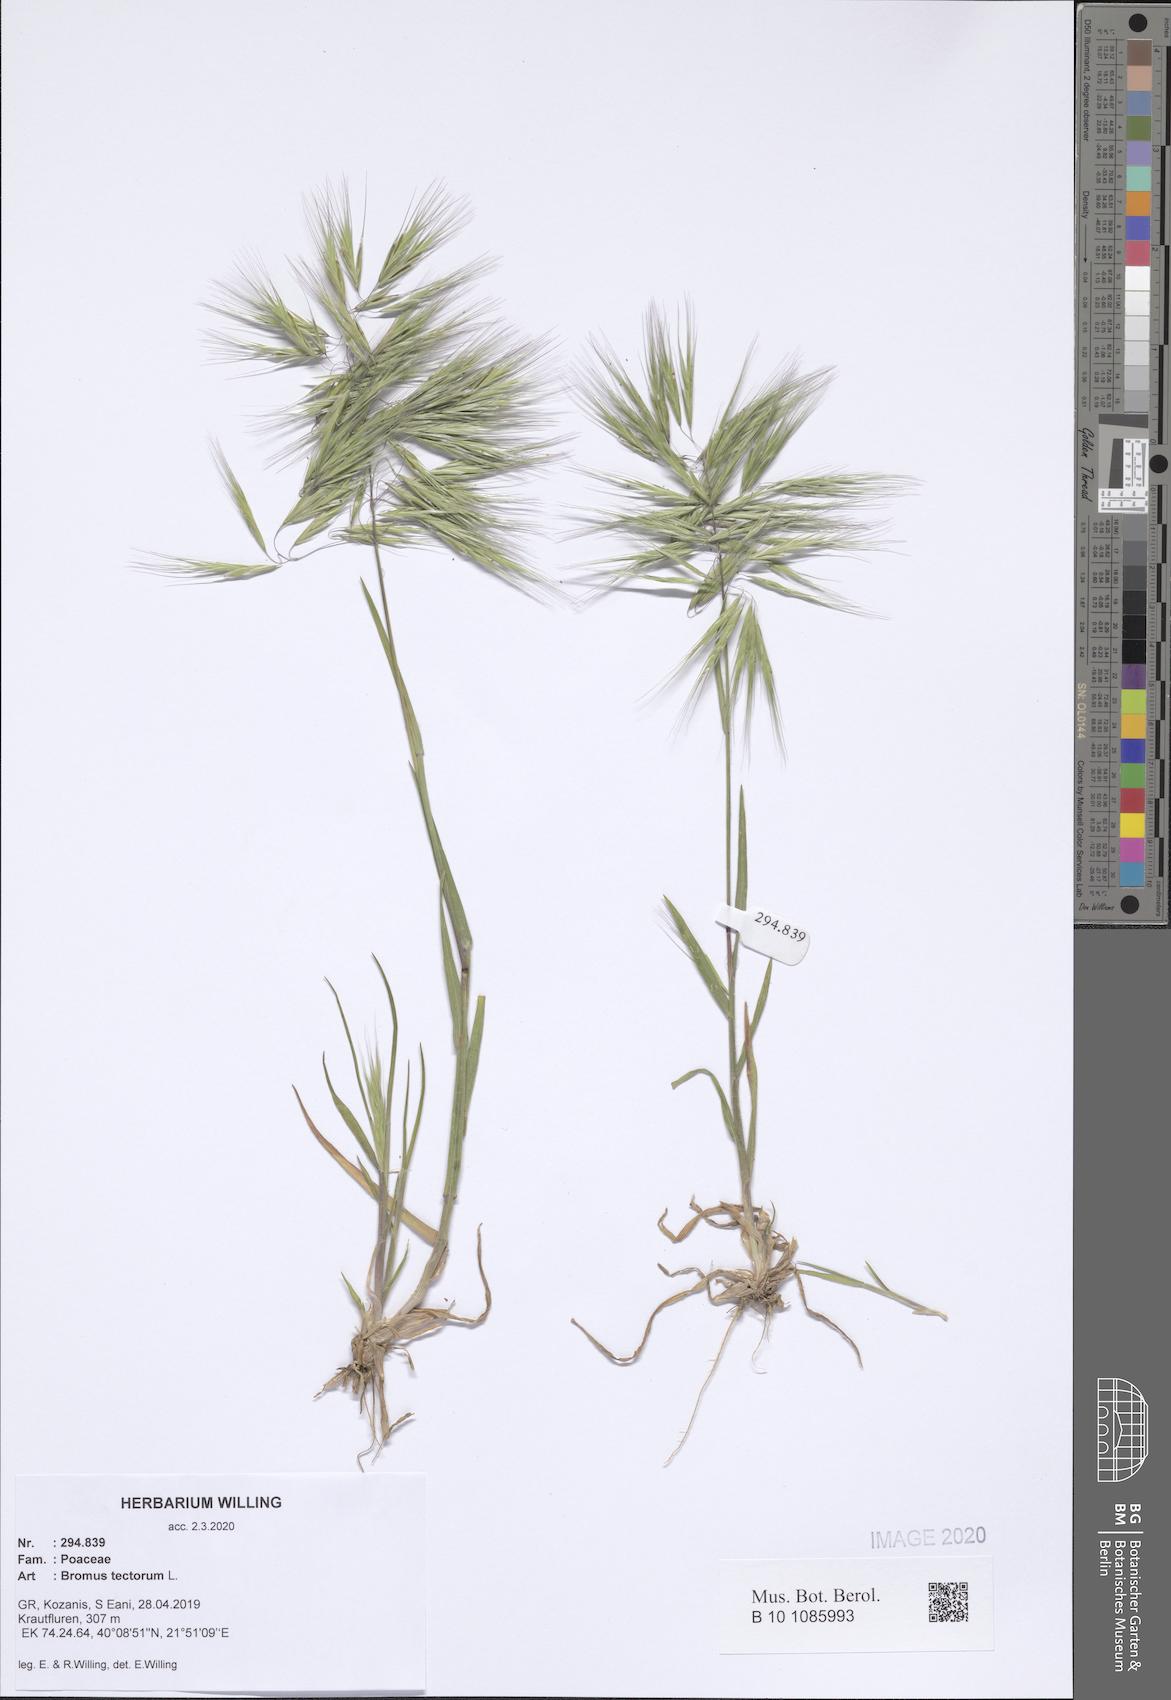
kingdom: Plantae
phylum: Tracheophyta
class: Liliopsida
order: Poales
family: Poaceae
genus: Bromus
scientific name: Bromus tectorum
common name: Cheatgrass
